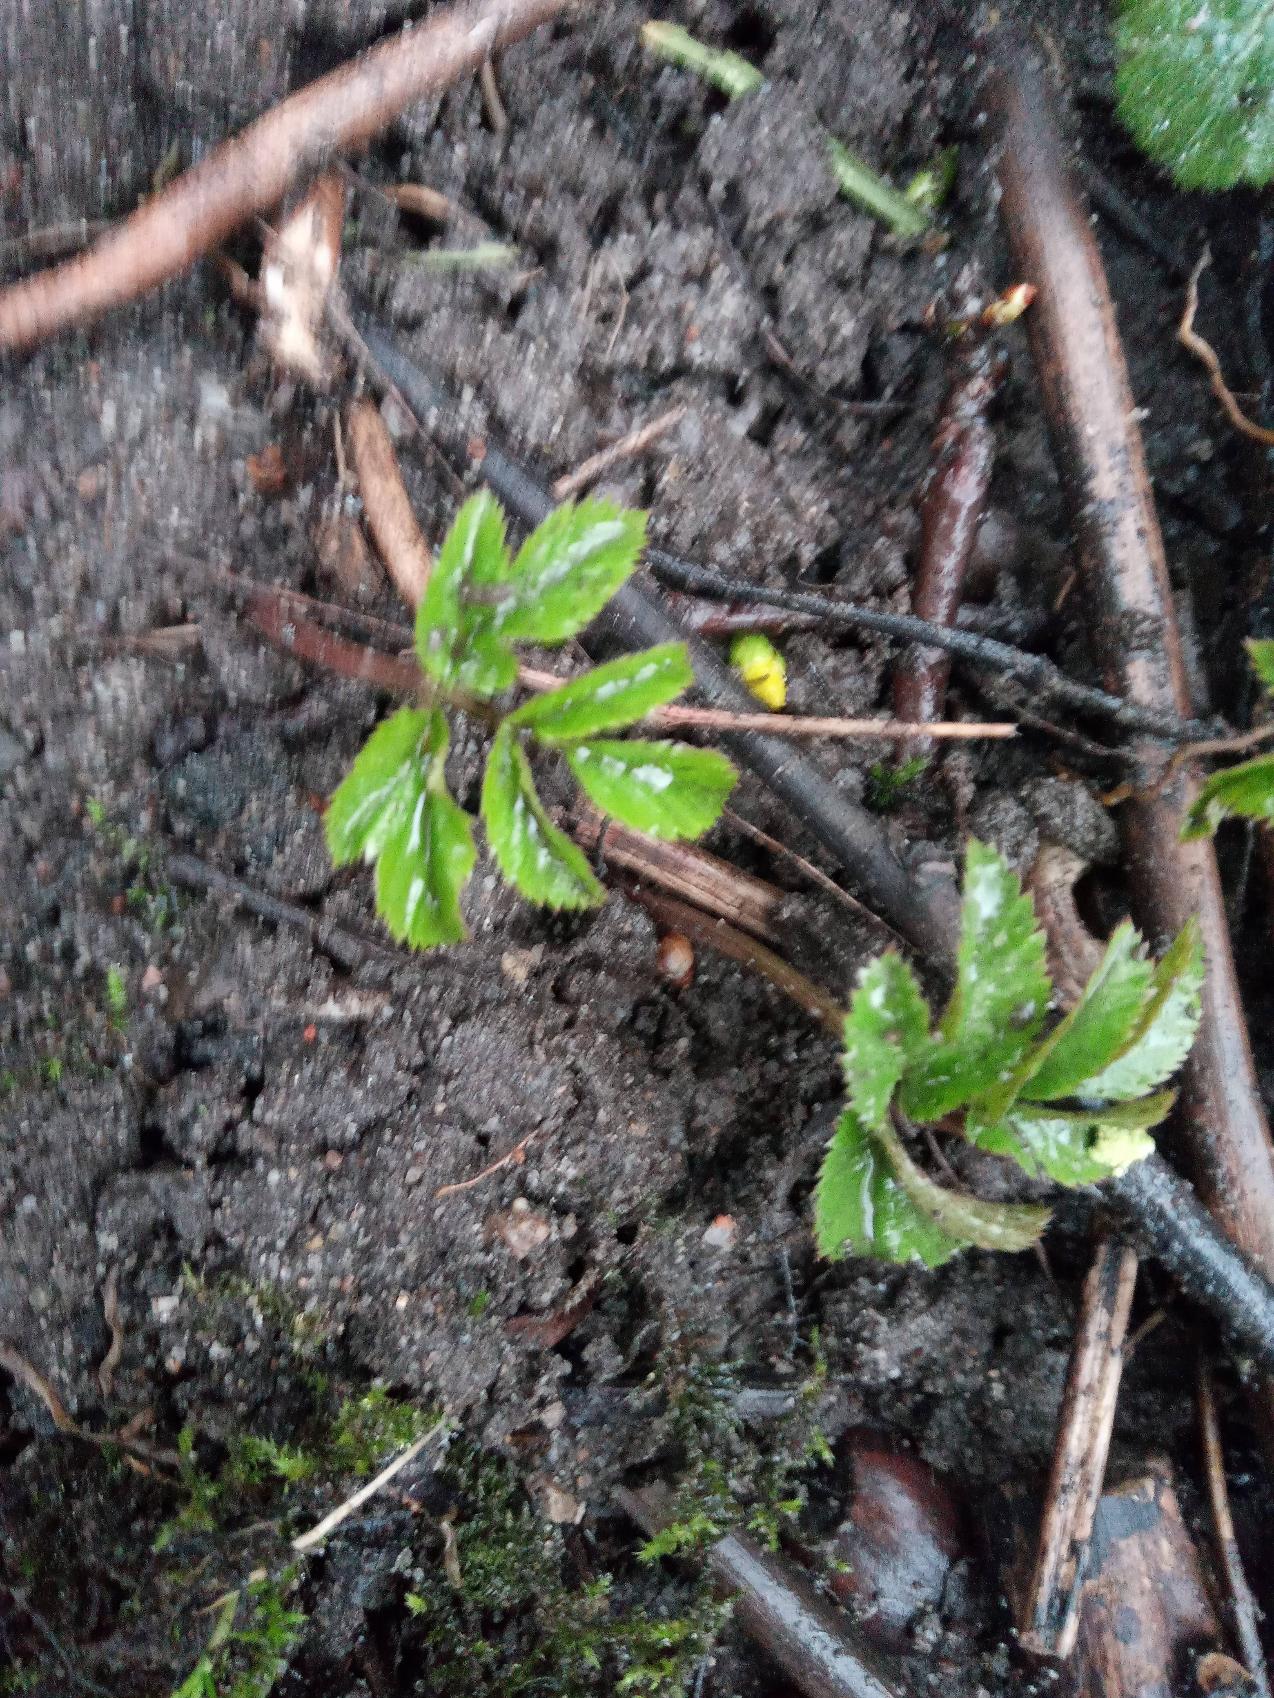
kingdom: Plantae
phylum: Tracheophyta
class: Magnoliopsida
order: Apiales
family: Apiaceae
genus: Aegopodium
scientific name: Aegopodium podagraria
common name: Skvalderkål
